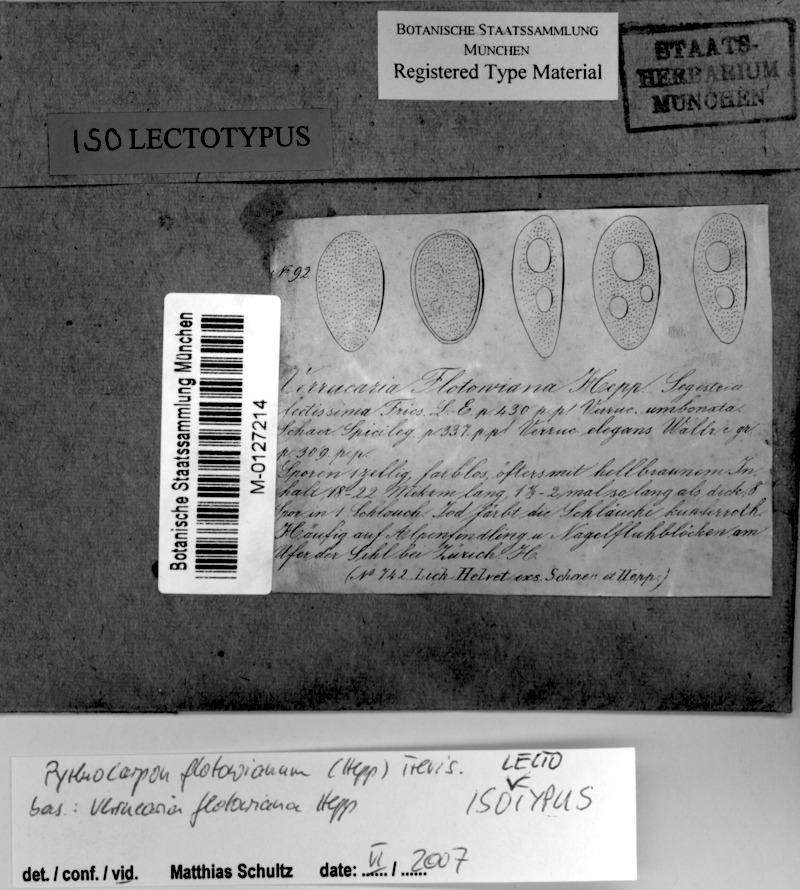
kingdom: Fungi
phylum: Ascomycota
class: Lichinomycetes
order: Lichinales
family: Lichinaceae
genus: Pyrenocarpon
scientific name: Pyrenocarpon thelostomum
